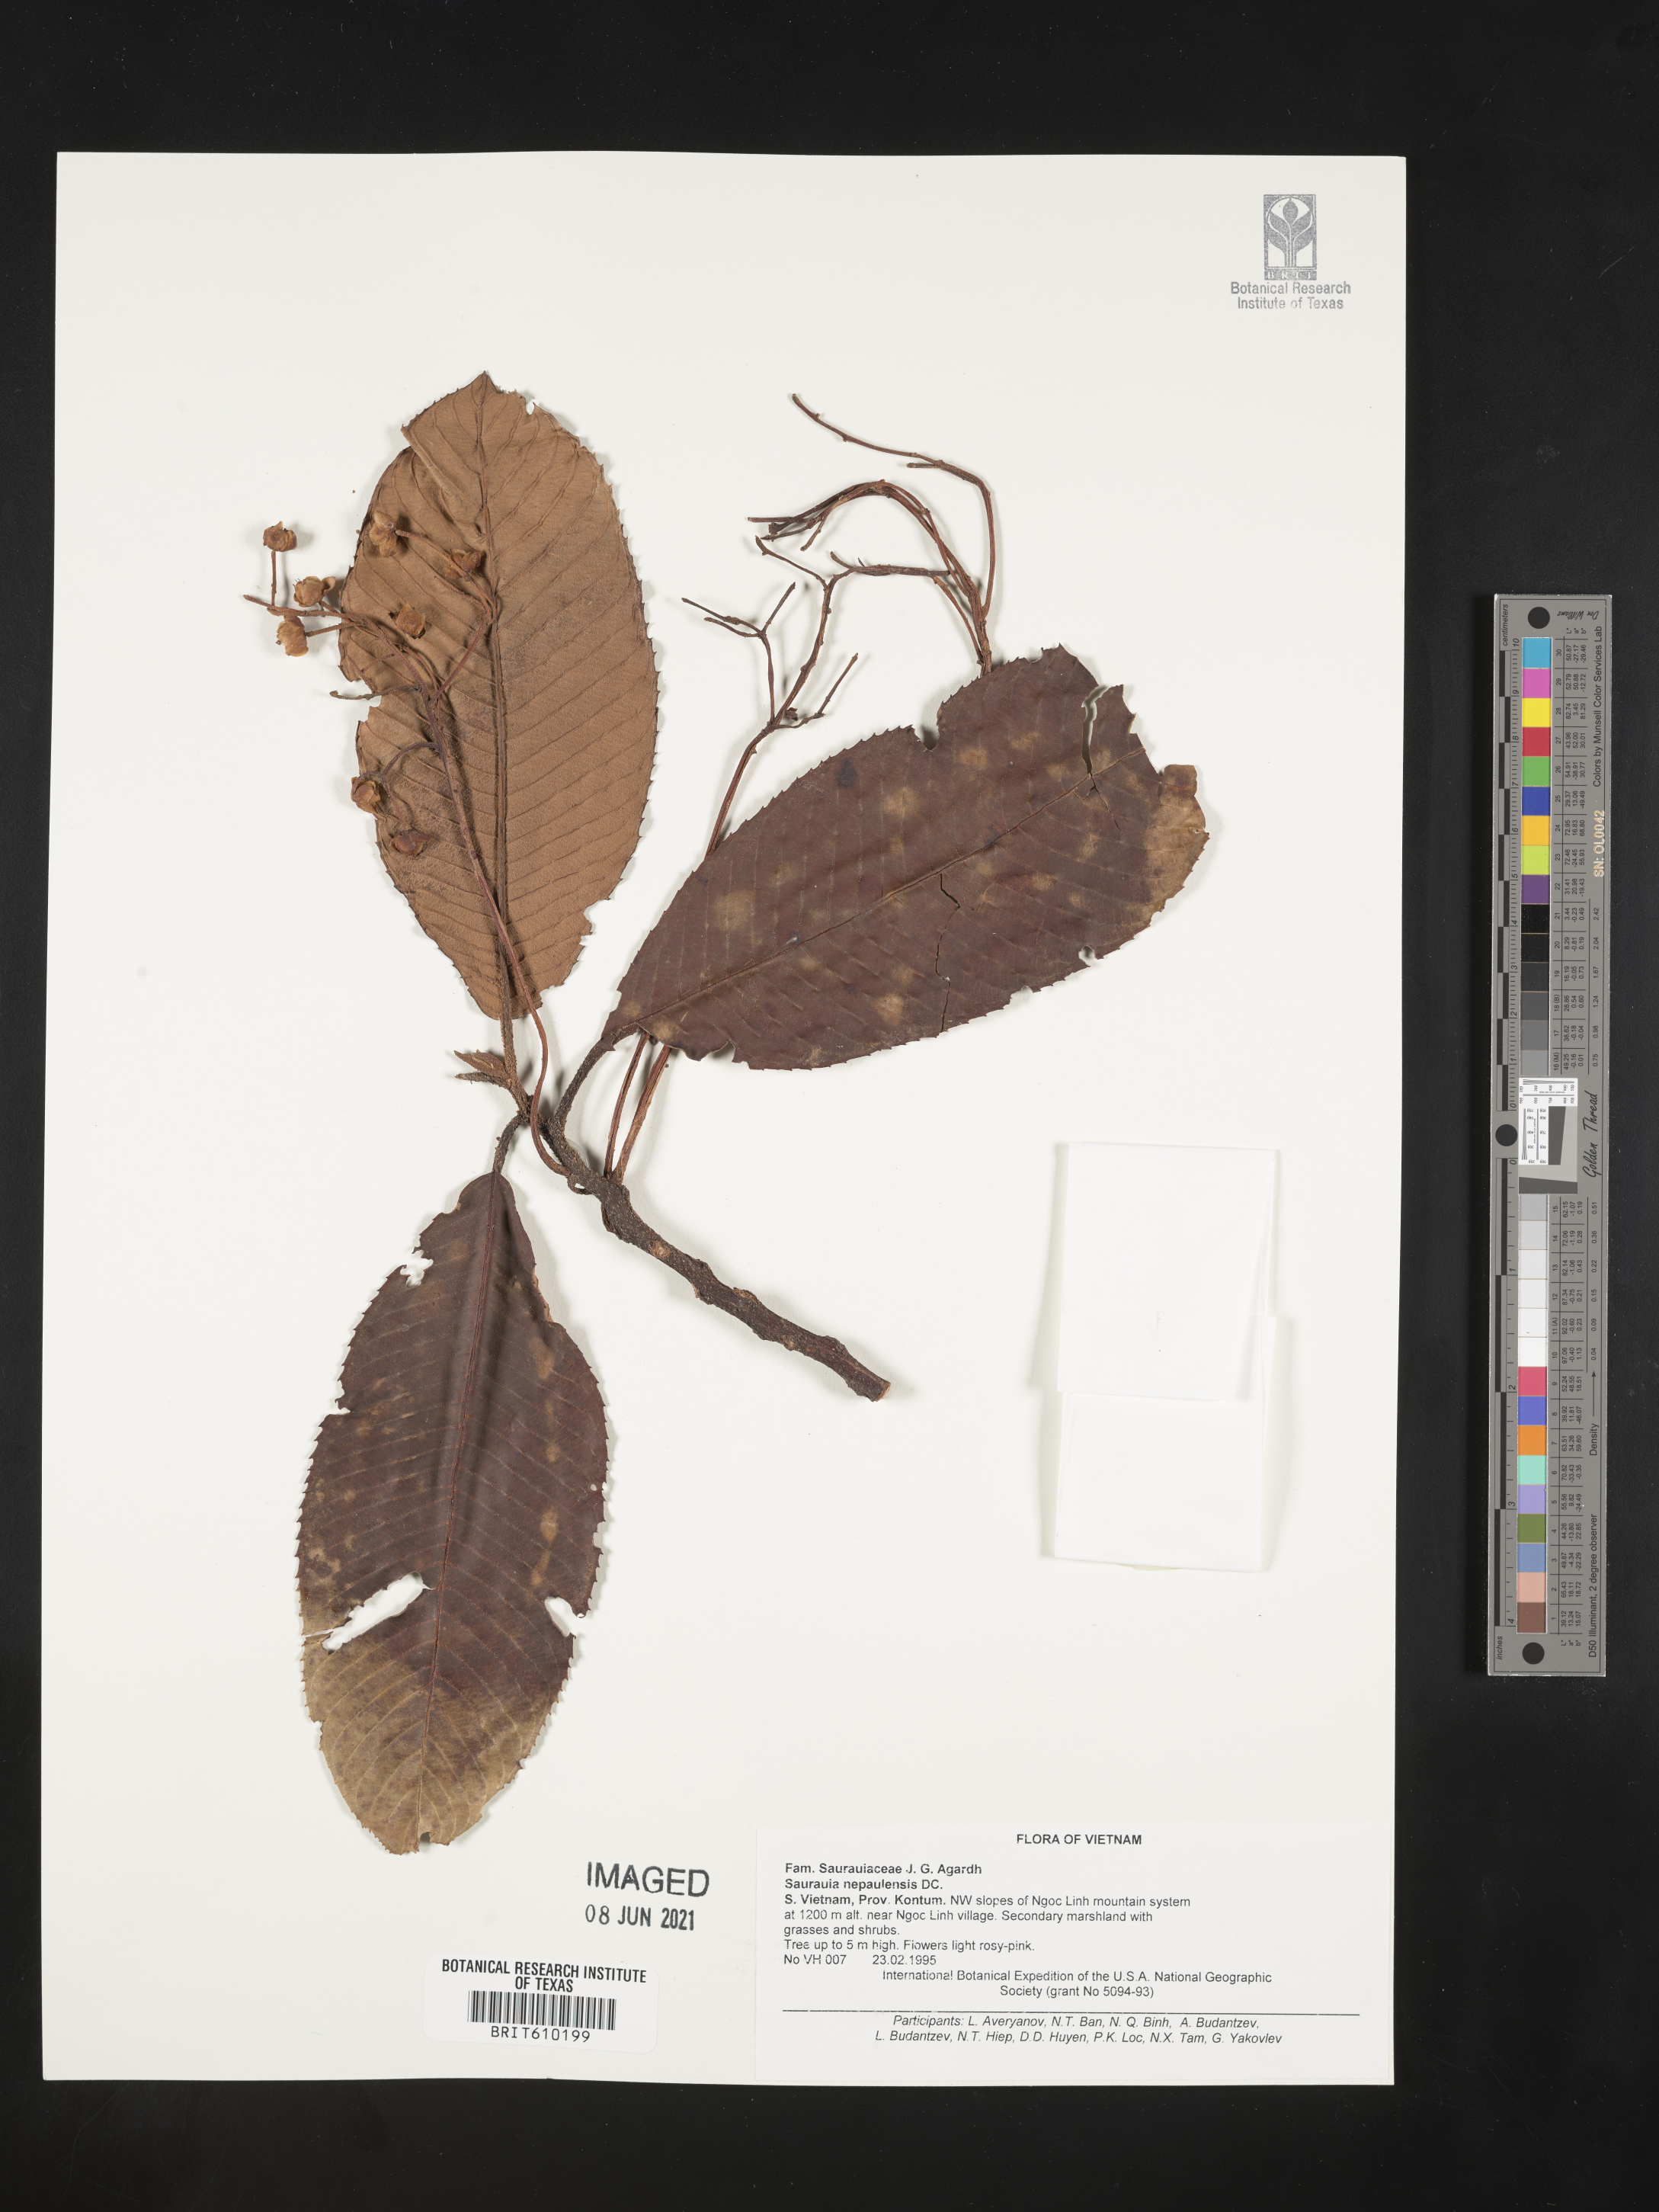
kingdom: Plantae
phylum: Tracheophyta
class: Magnoliopsida
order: Ericales
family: Actinidiaceae
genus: Saurauia
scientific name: Saurauia napaulensis
